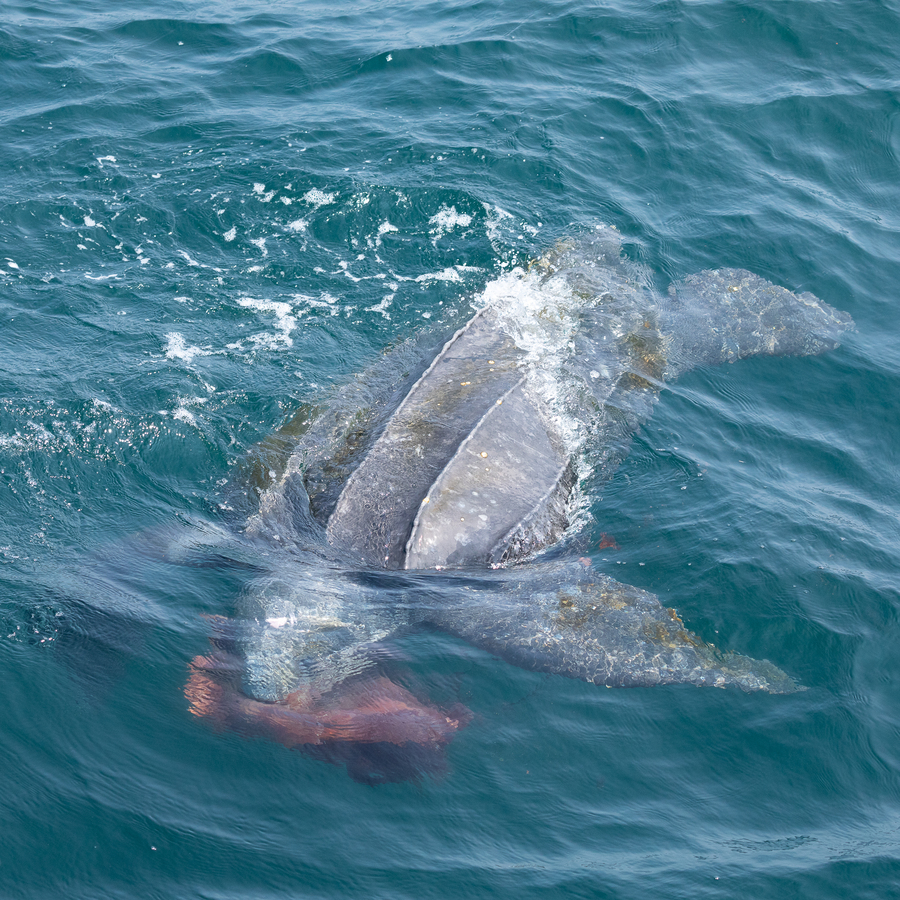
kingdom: Animalia
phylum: Chordata
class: Testudines
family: Dermochelyidae
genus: Dermochelys
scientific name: Dermochelys coriacea
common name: Leatherback Sea Turtle
